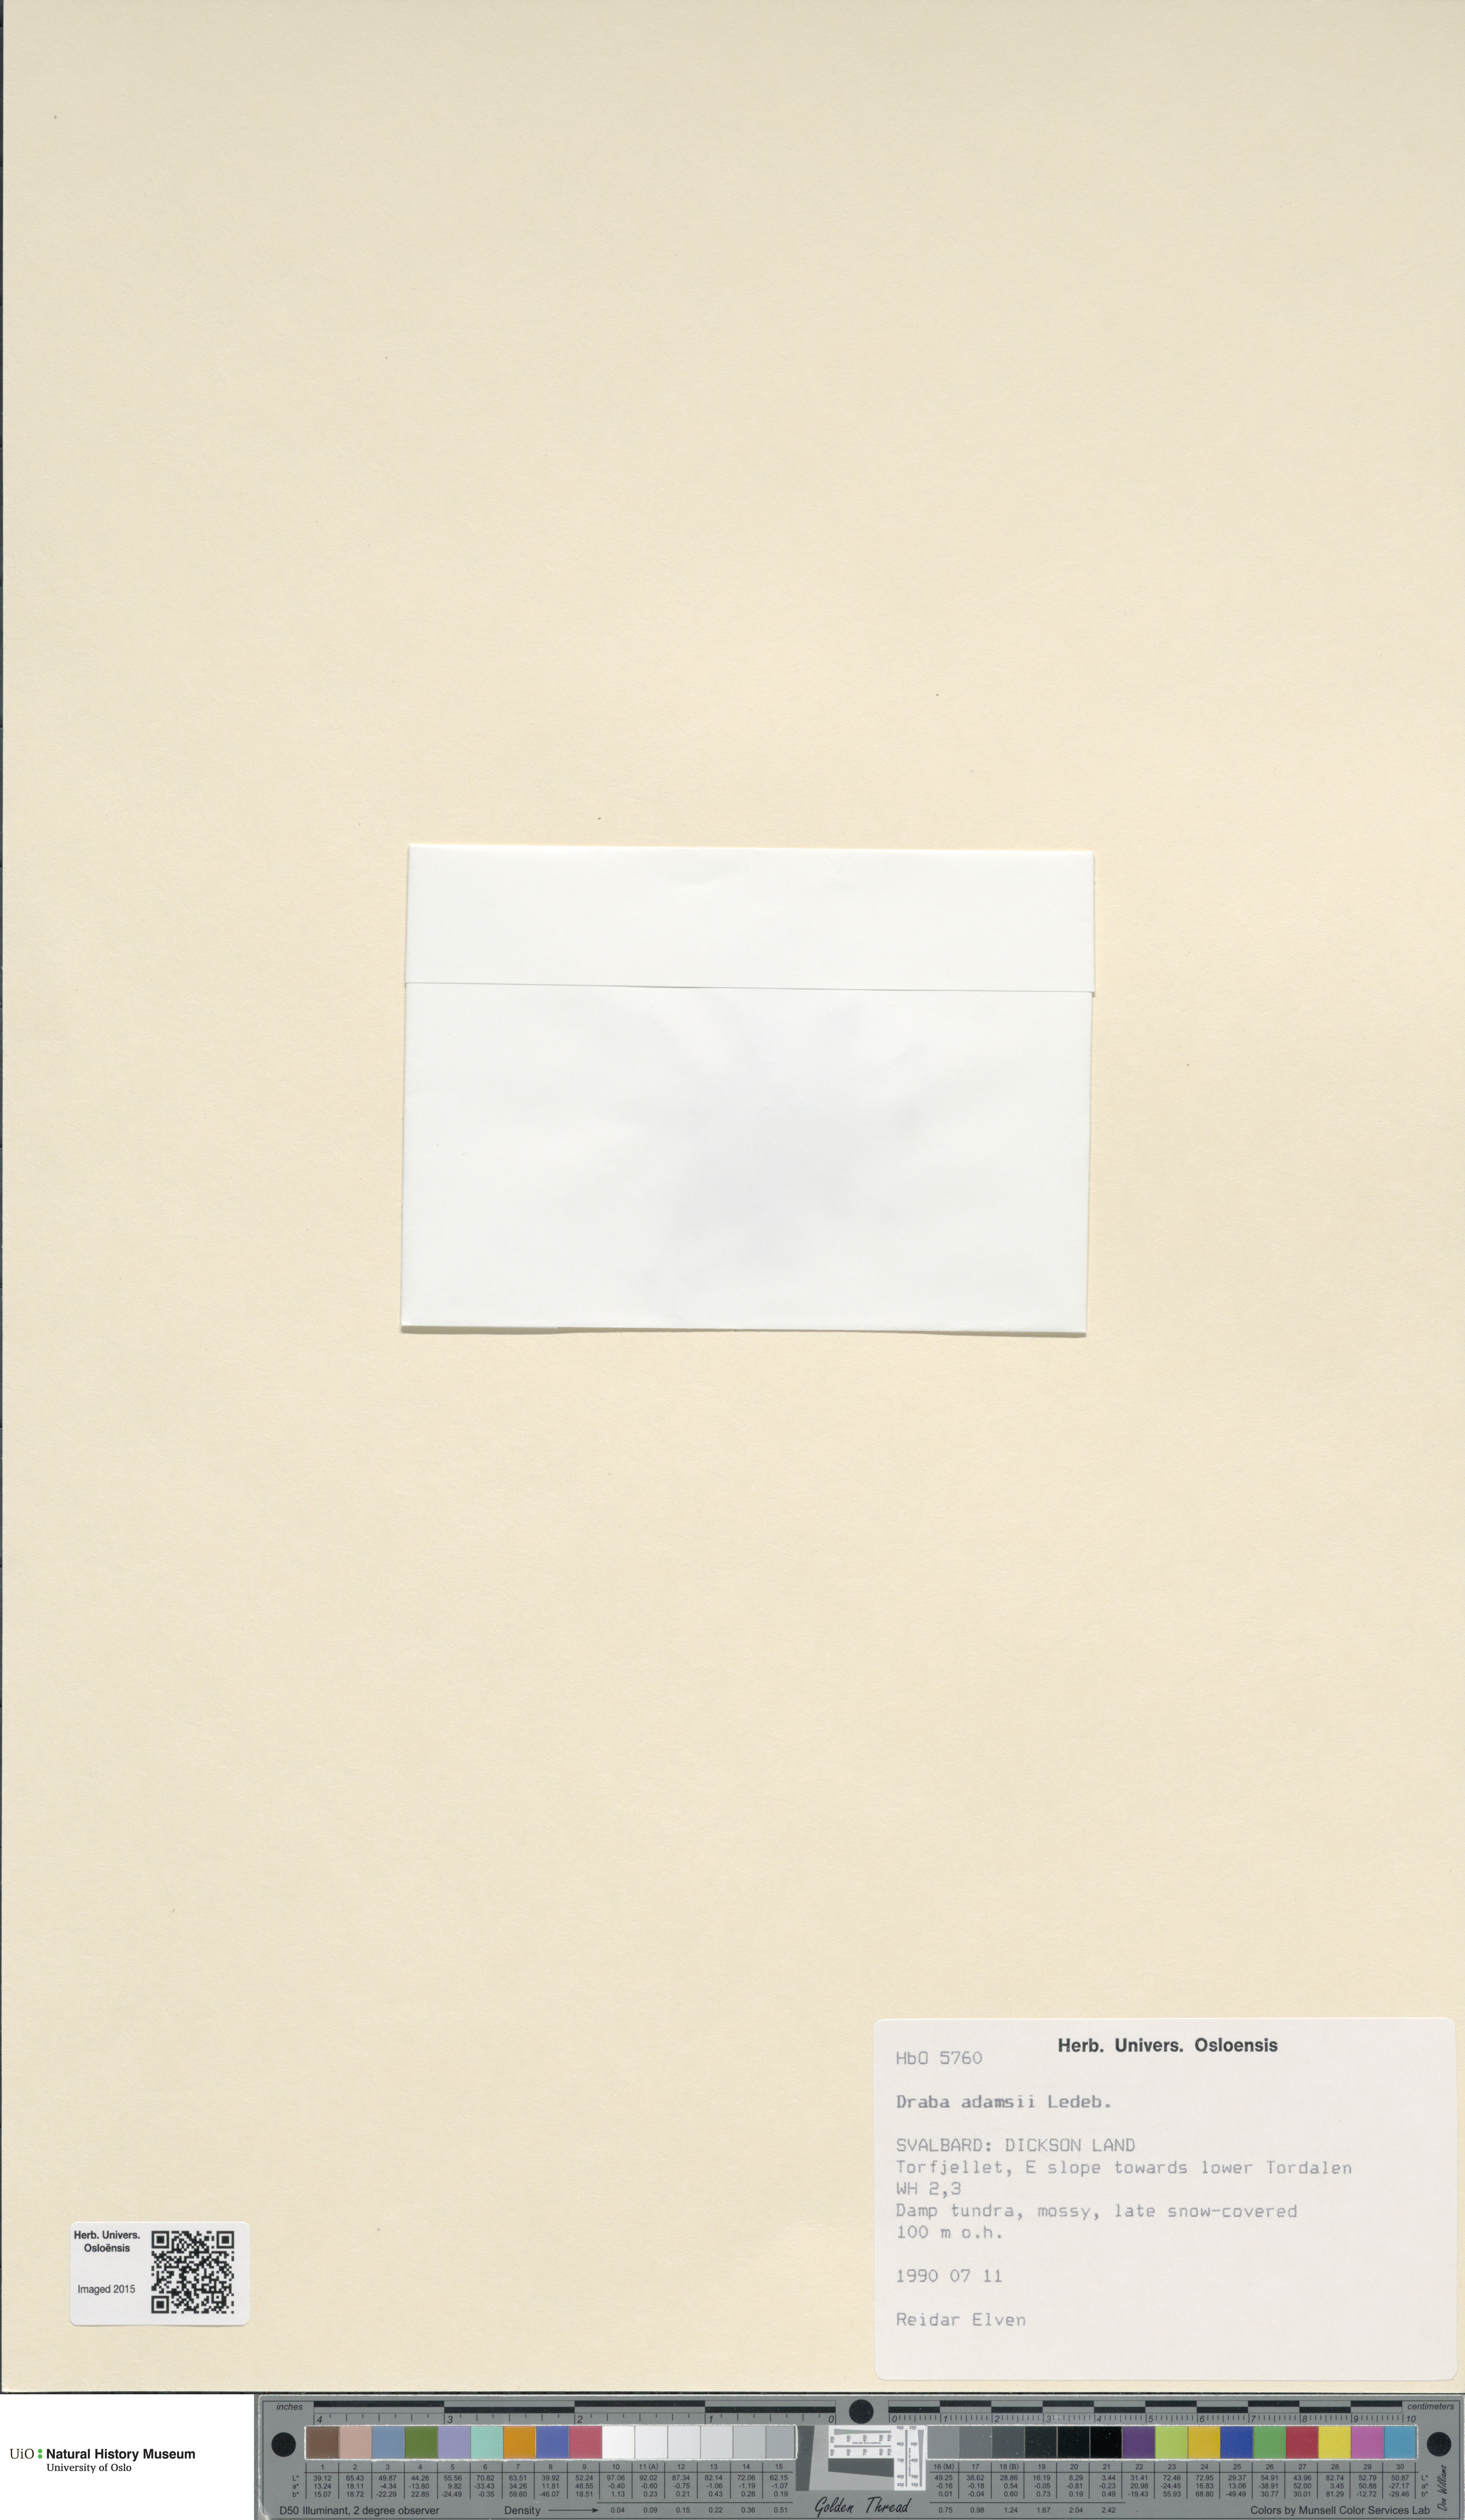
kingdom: Plantae
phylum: Tracheophyta
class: Magnoliopsida
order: Brassicales
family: Brassicaceae
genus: Draba
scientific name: Draba pauciflora
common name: Few-flowered draba
